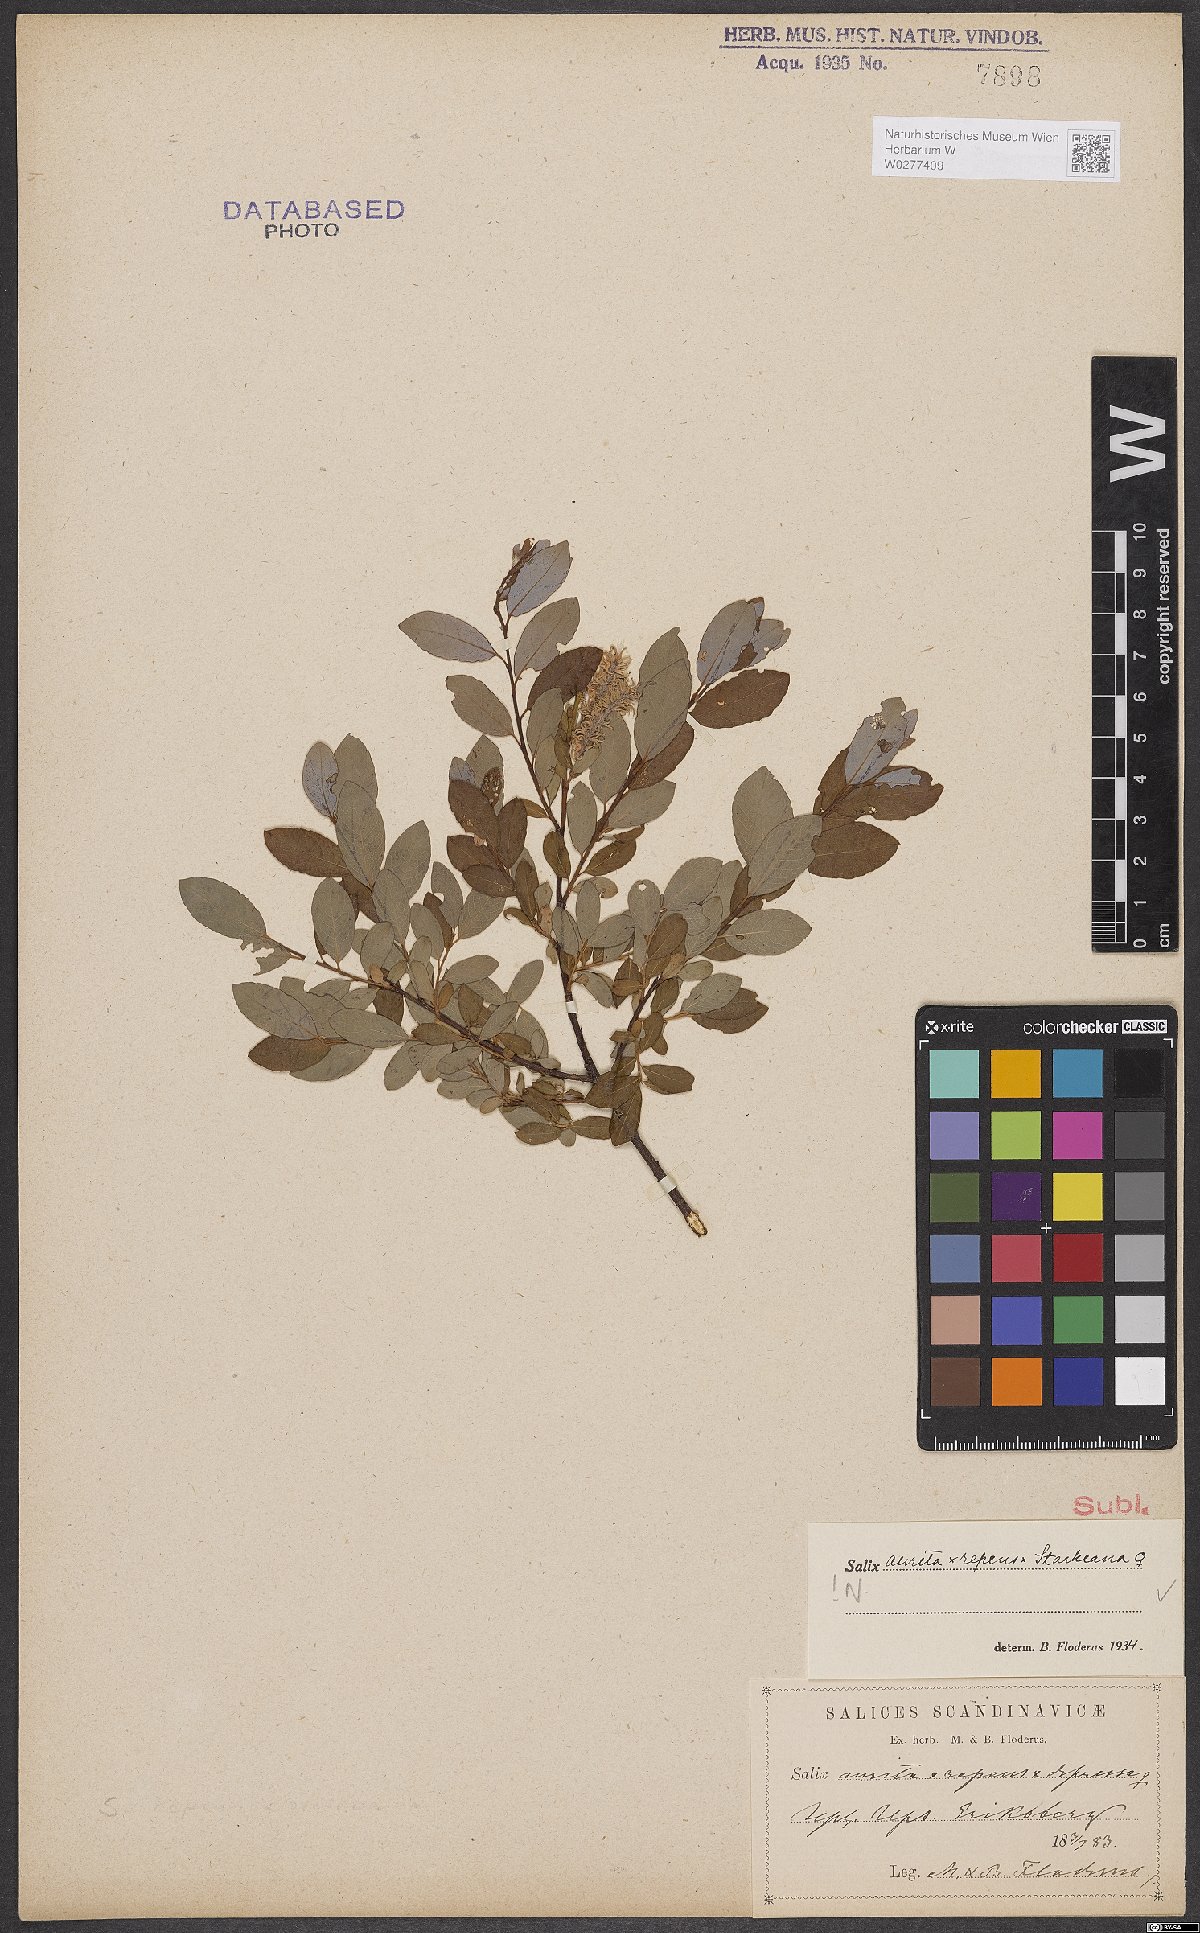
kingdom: Plantae
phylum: Tracheophyta
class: Magnoliopsida
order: Malpighiales
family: Salicaceae
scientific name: Salicaceae
